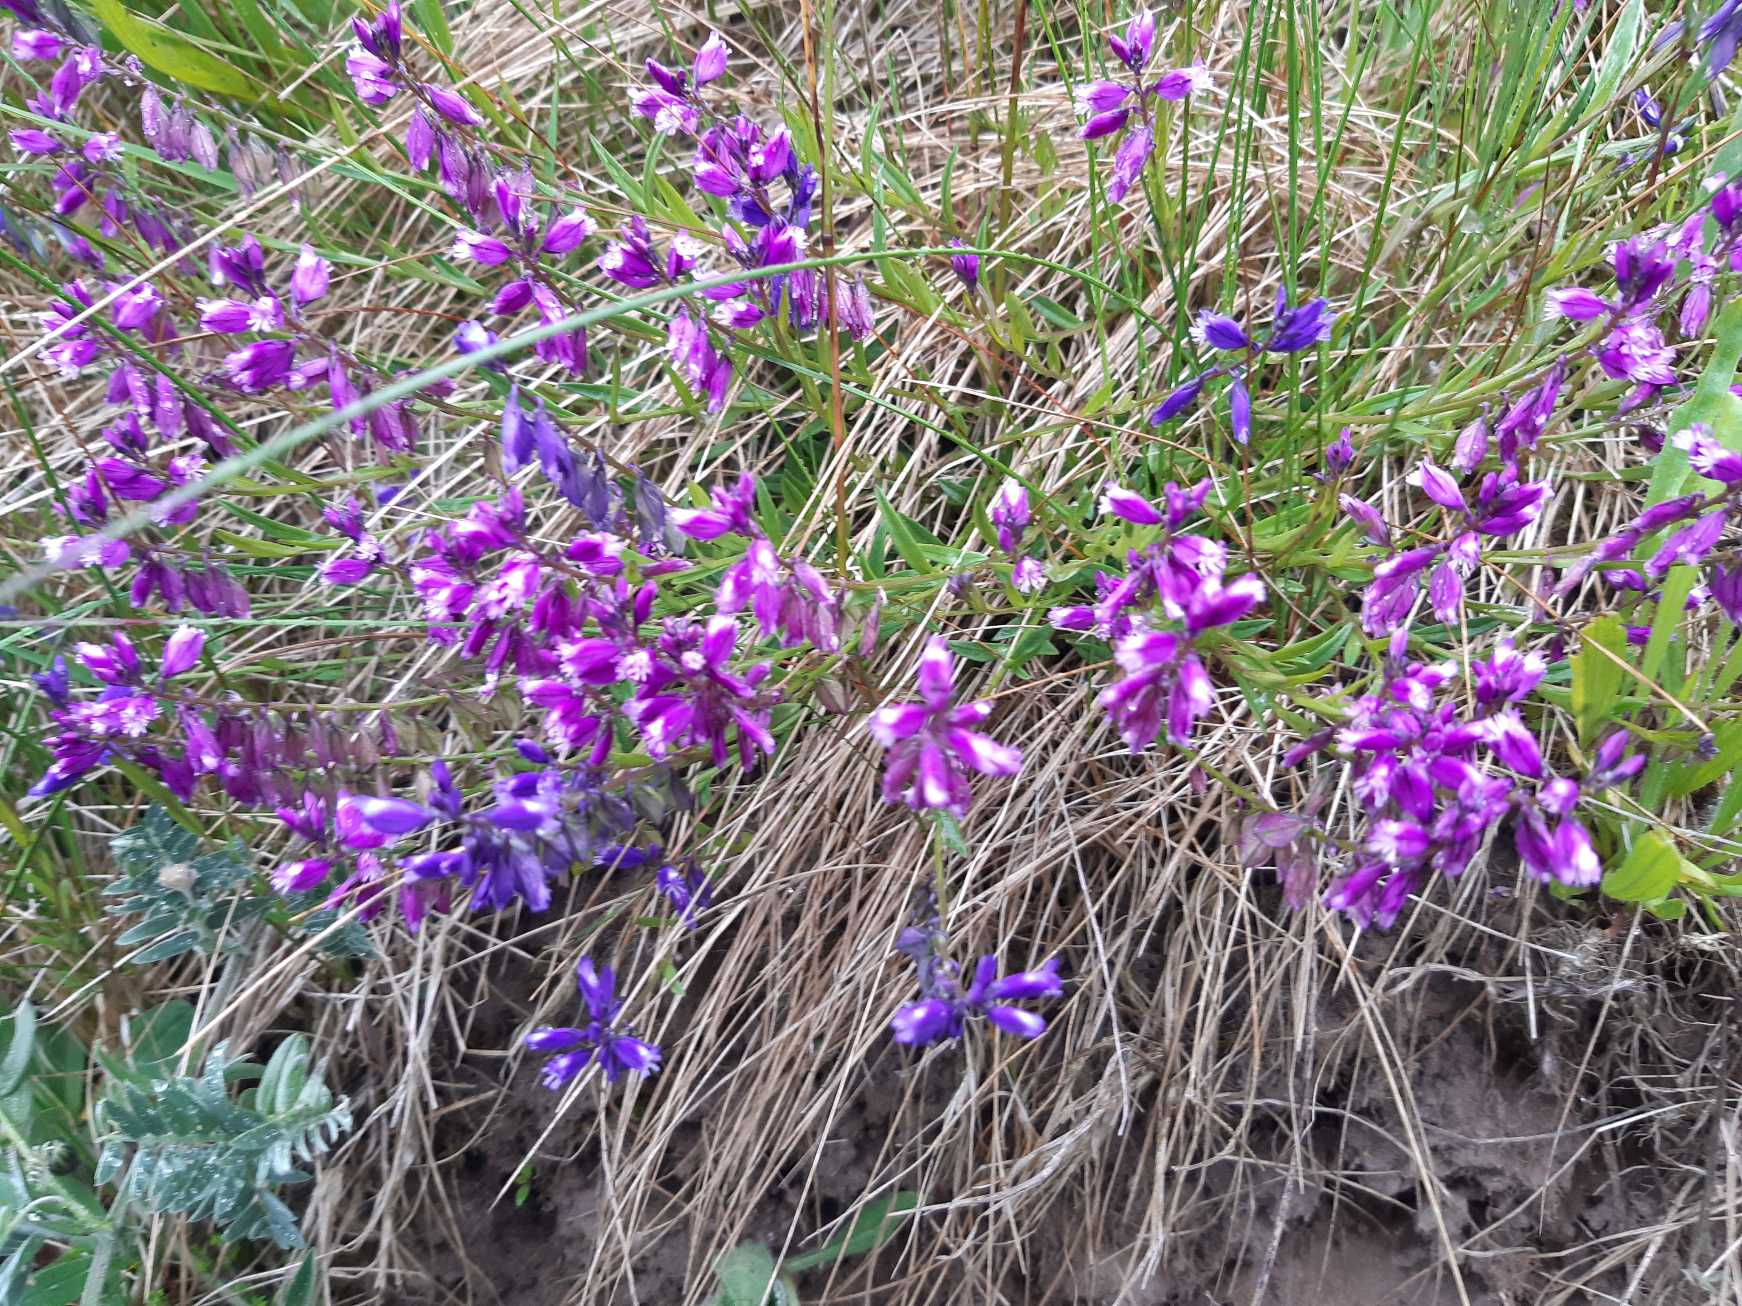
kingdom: Plantae
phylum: Tracheophyta
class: Magnoliopsida
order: Fabales
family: Polygalaceae
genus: Polygala
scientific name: Polygala vulgaris
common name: Almindelig mælkeurt
